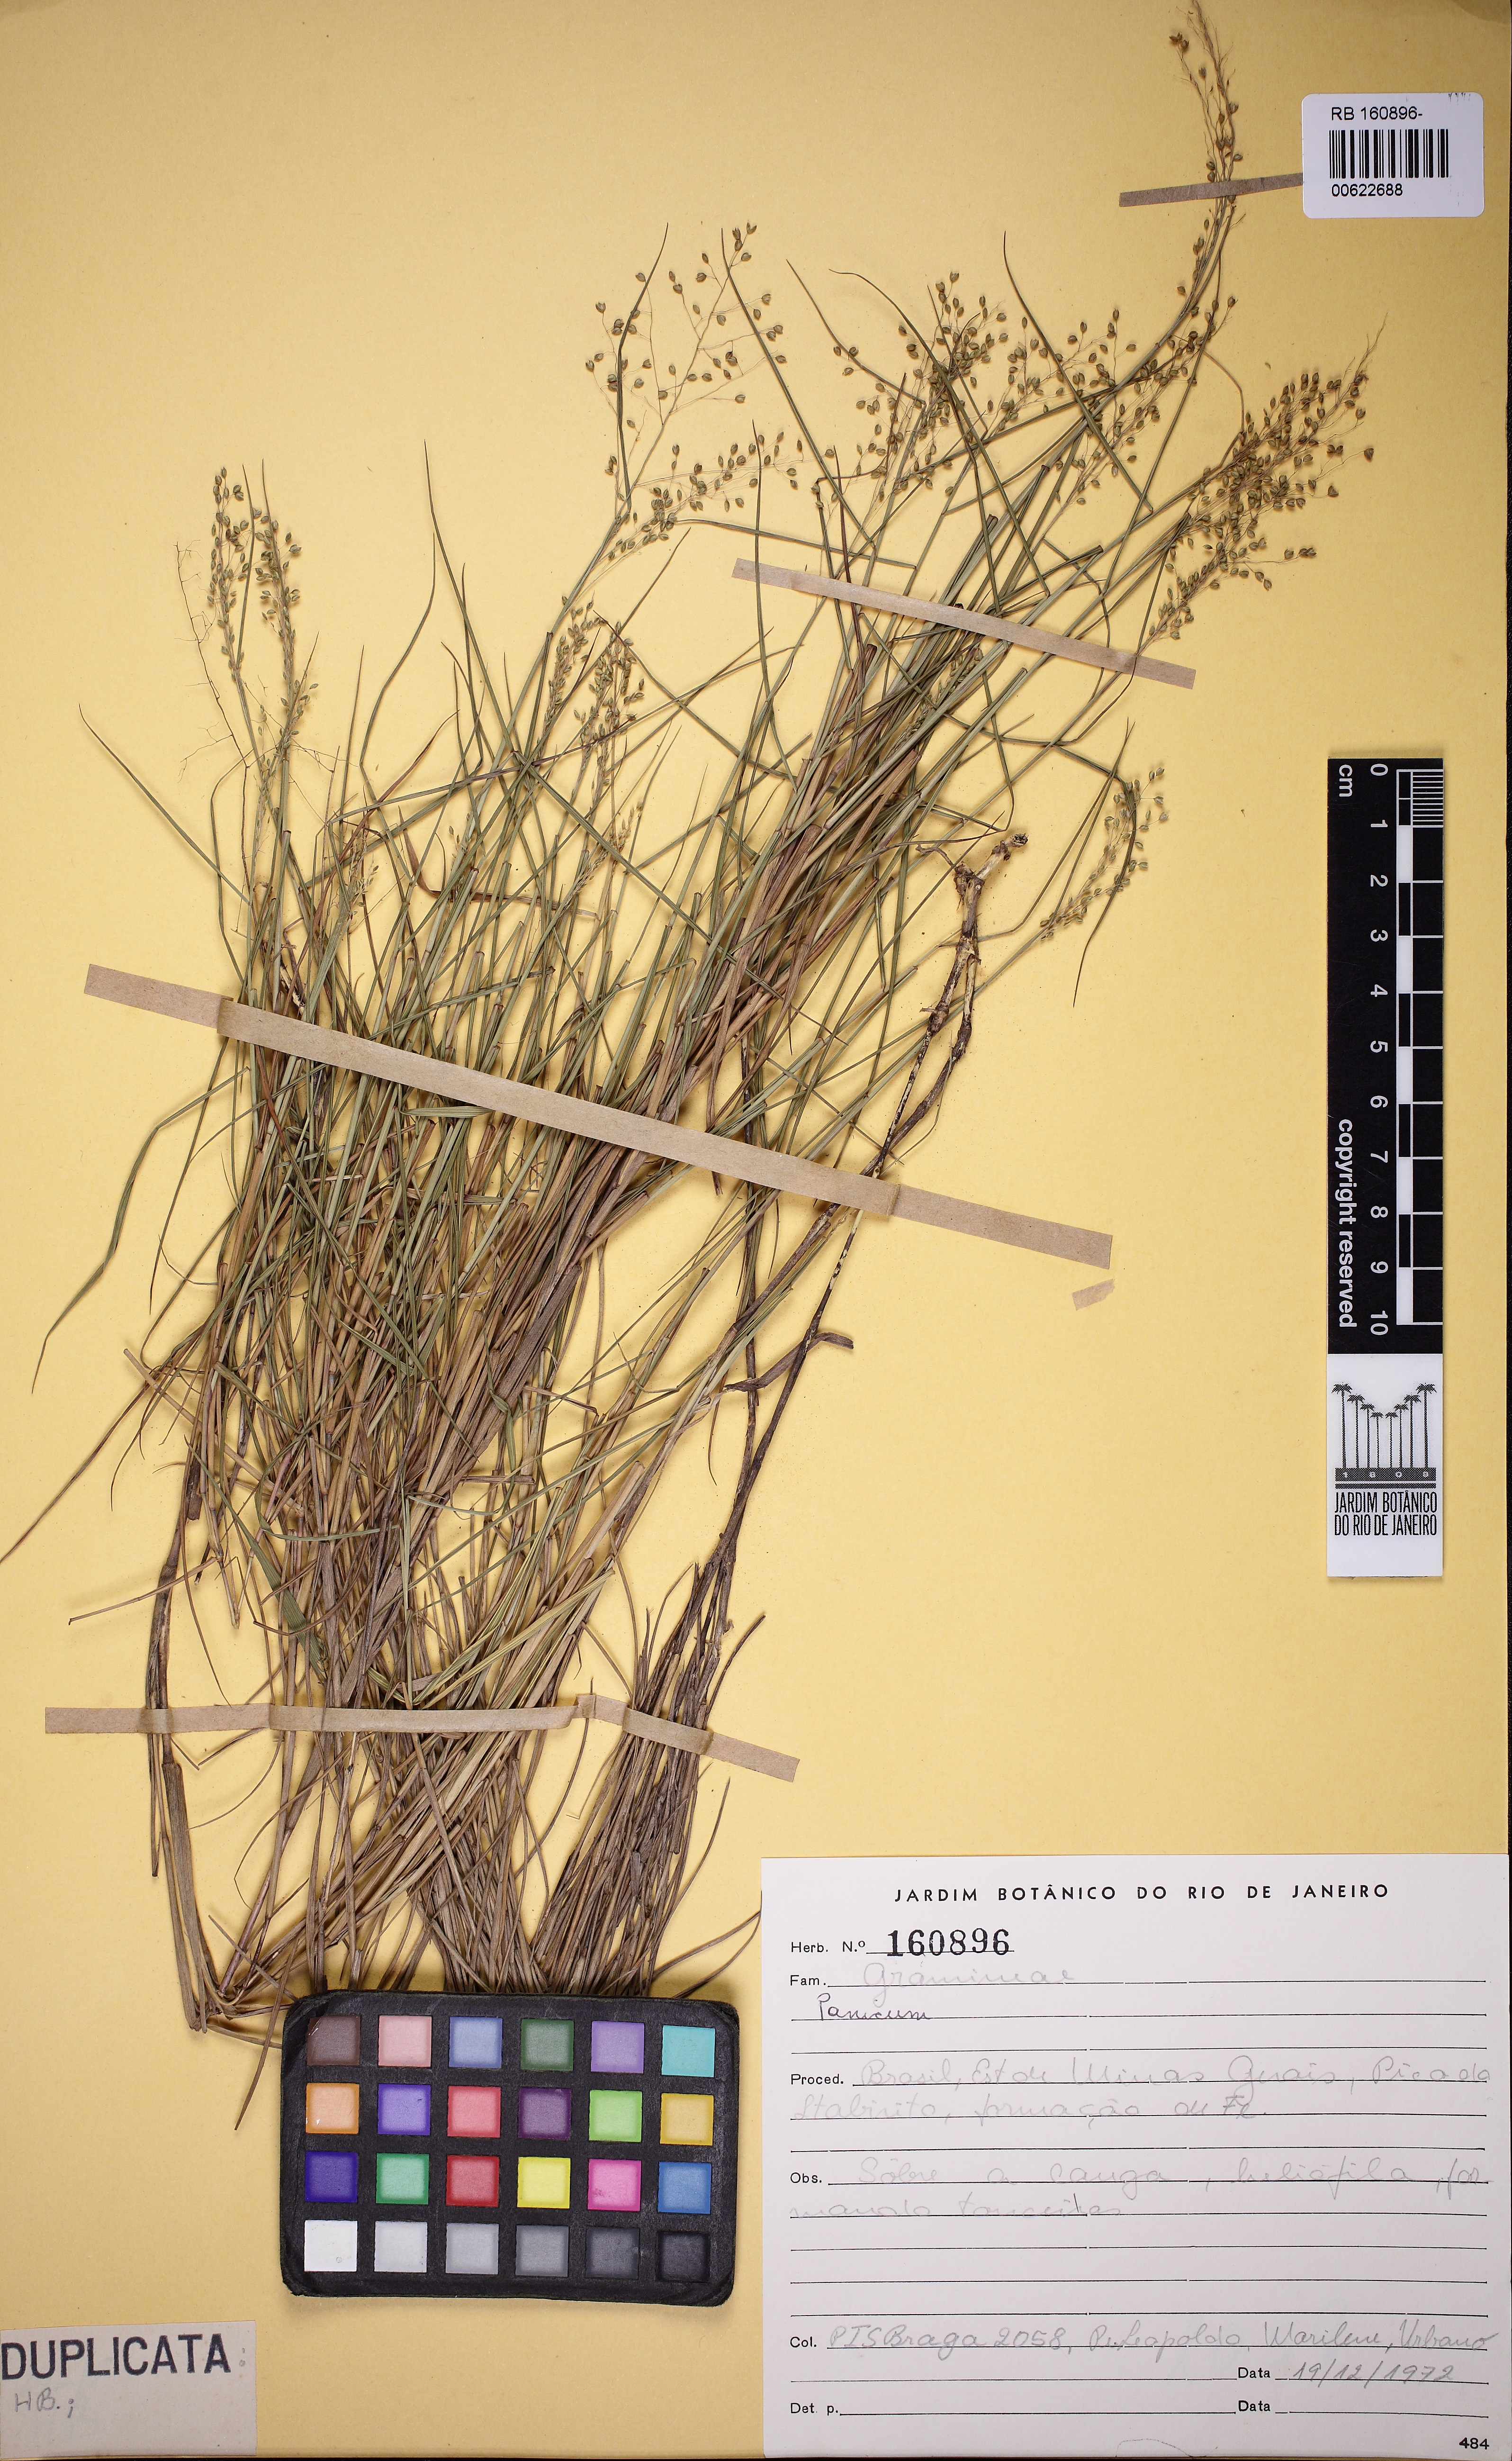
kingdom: Plantae
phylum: Tracheophyta
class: Liliopsida
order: Poales
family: Poaceae
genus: Trichanthecium
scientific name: Trichanthecium distichophyllum
